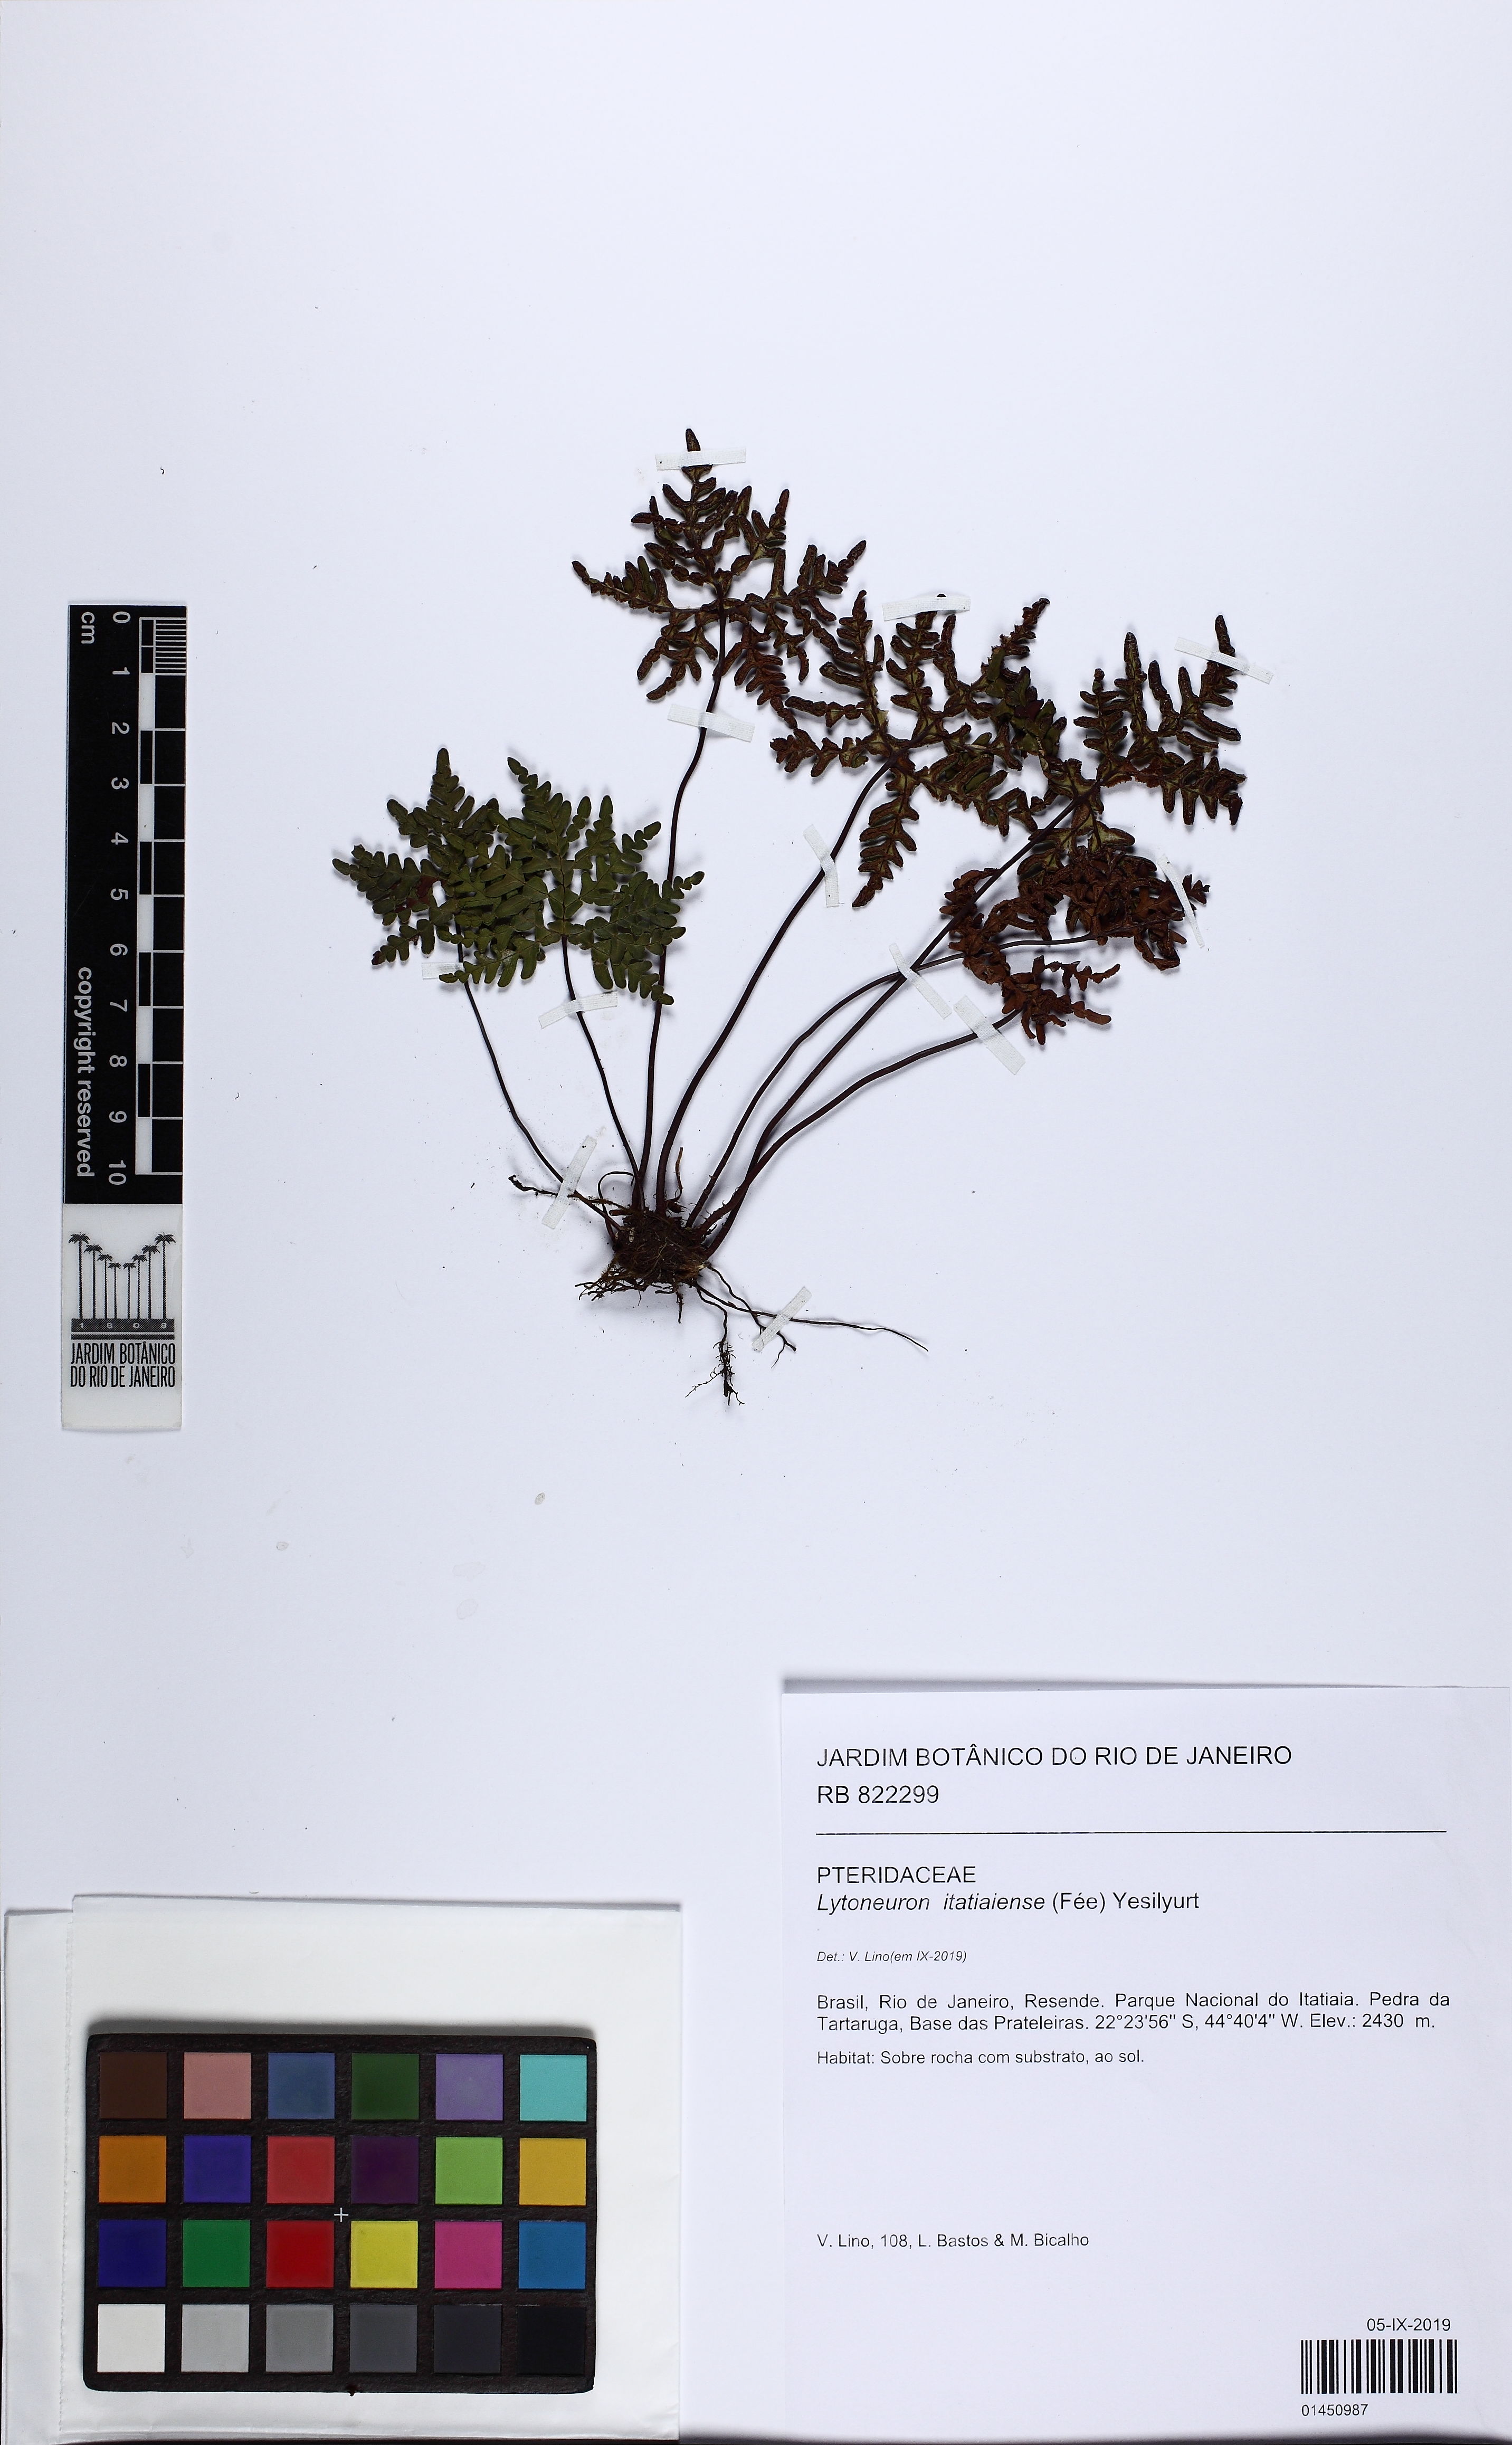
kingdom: Plantae
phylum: Tracheophyta
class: Polypodiopsida
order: Polypodiales
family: Pteridaceae
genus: Lytoneuron
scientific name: Lytoneuron itatiaiense
